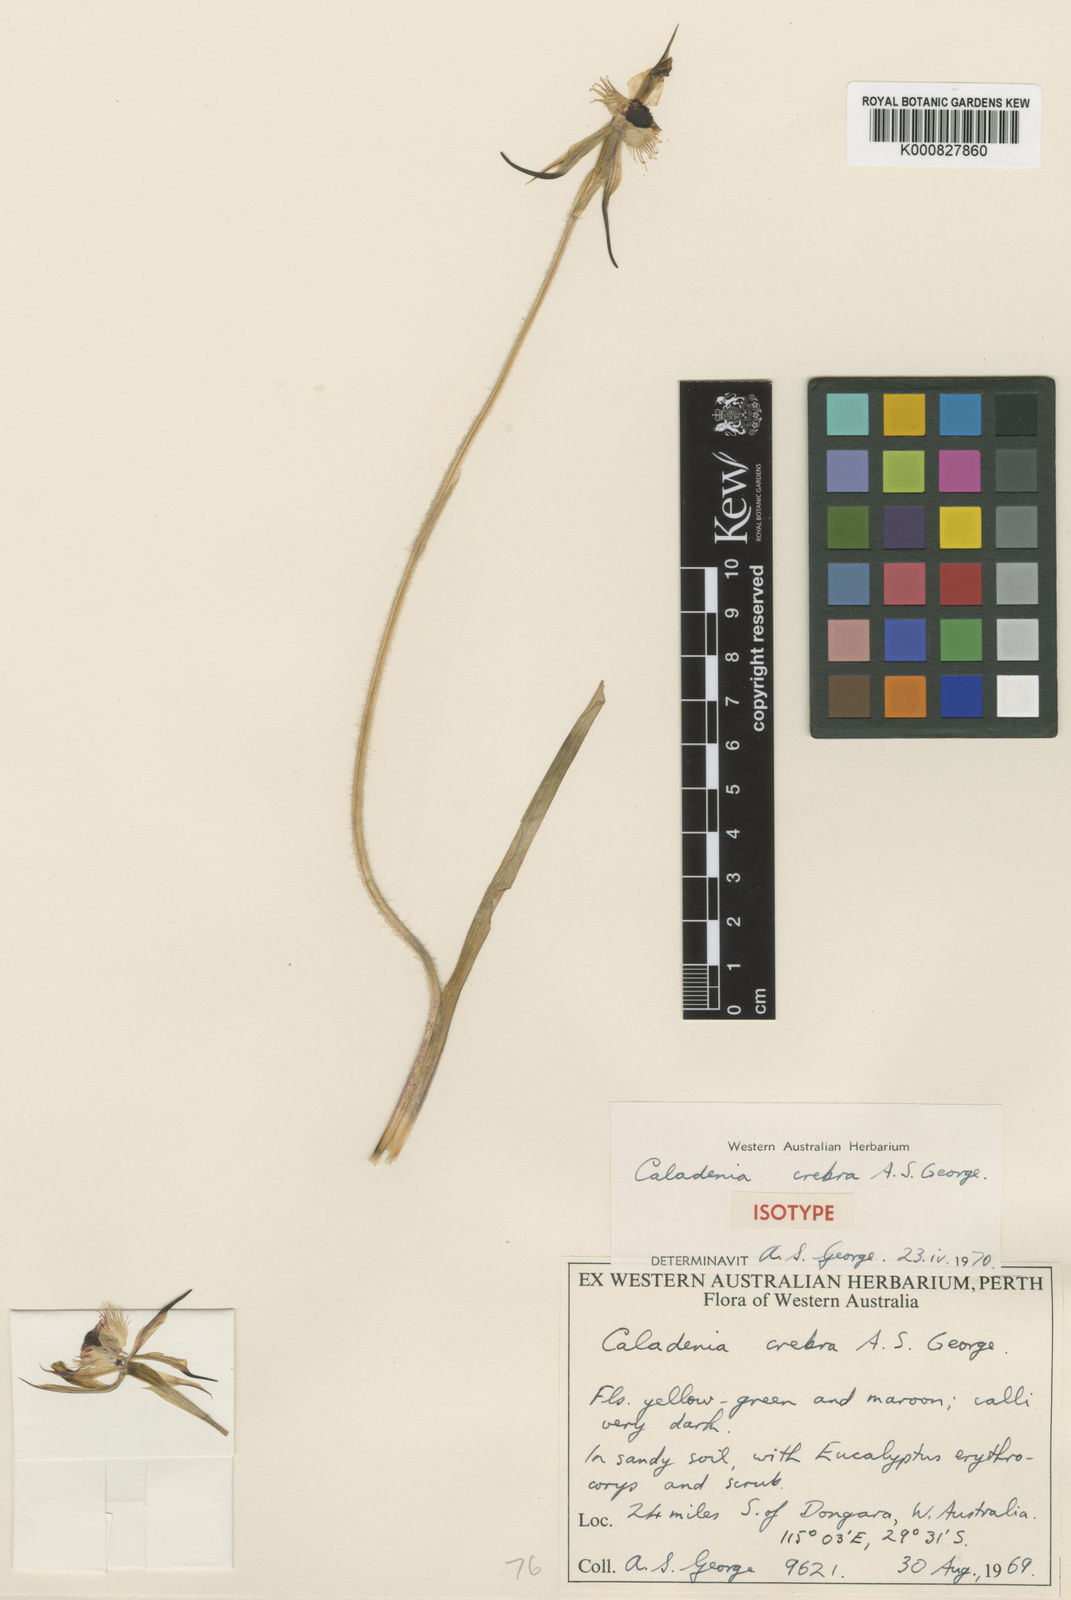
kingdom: Plantae
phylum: Tracheophyta
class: Liliopsida
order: Asparagales
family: Orchidaceae
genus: Caladenia
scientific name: Caladenia crebra
